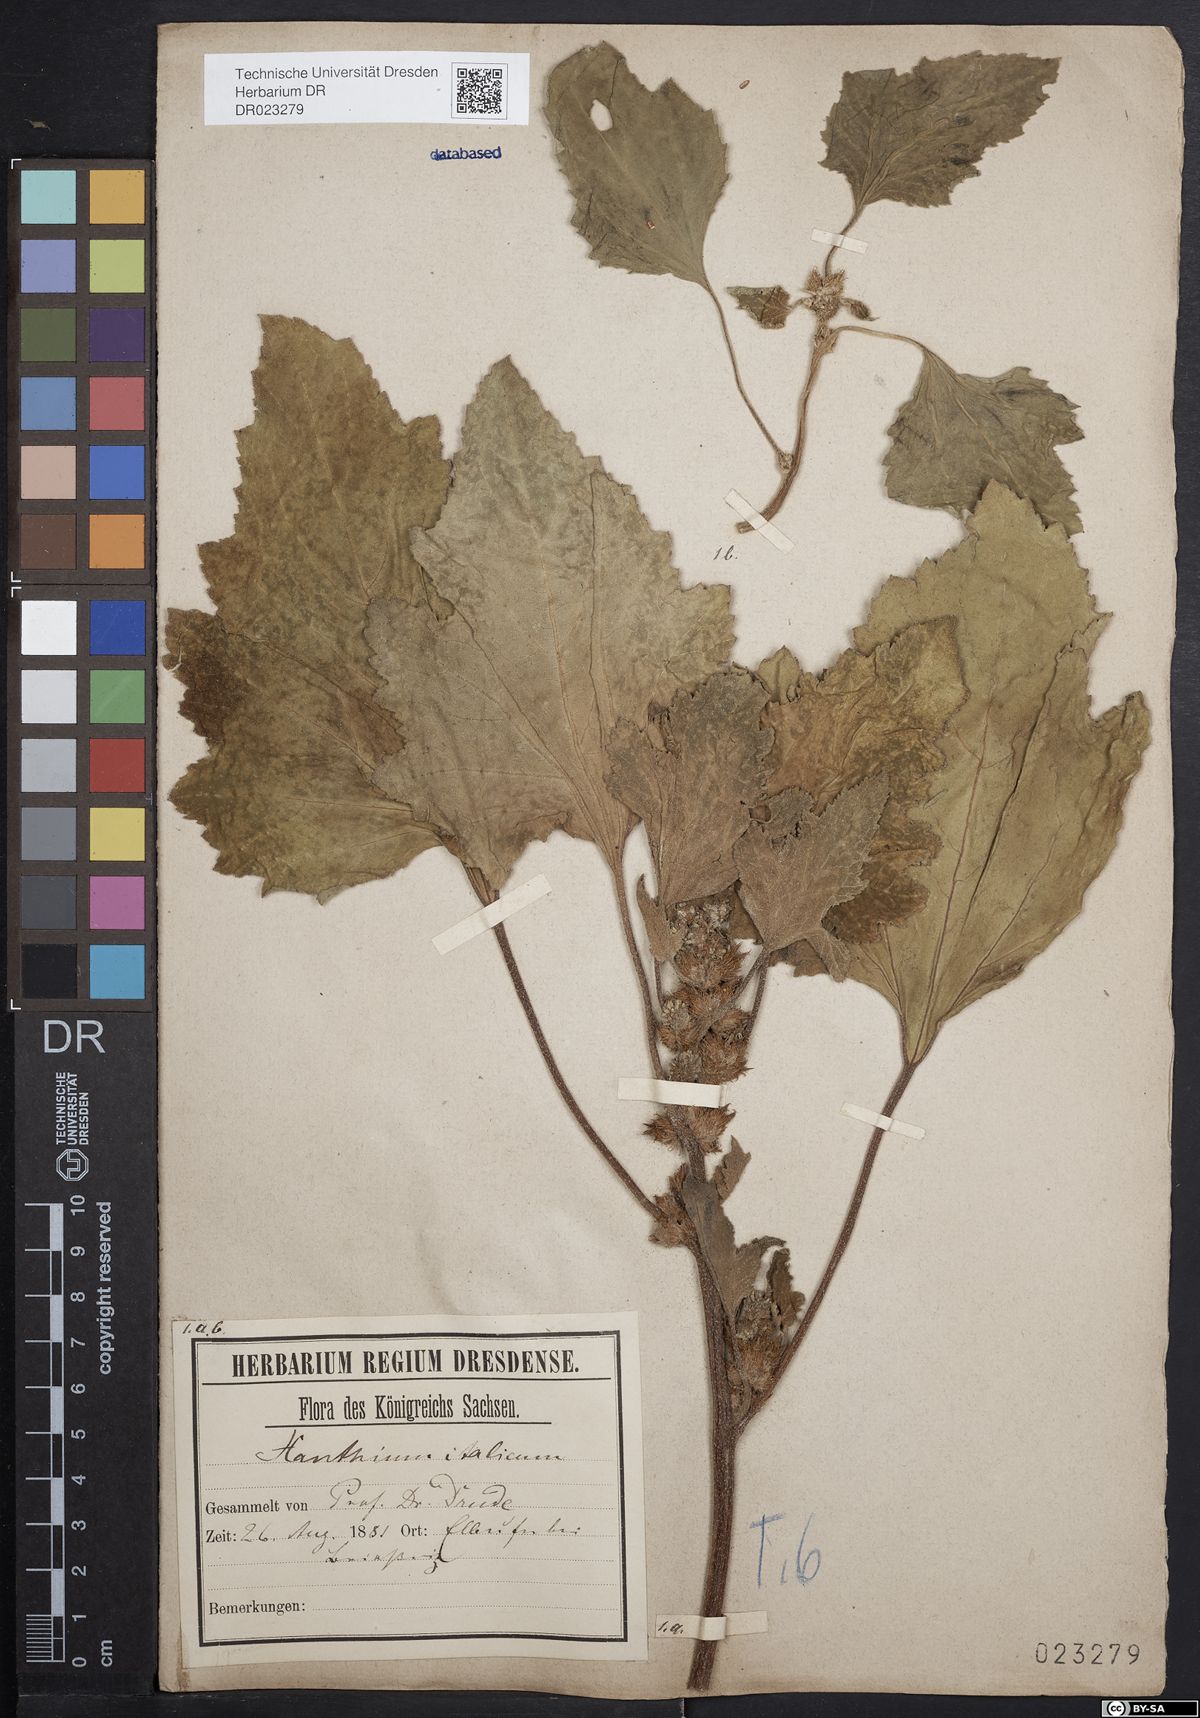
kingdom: Plantae
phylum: Tracheophyta
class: Magnoliopsida
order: Asterales
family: Asteraceae
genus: Xanthium
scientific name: Xanthium orientale
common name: Californian burr
